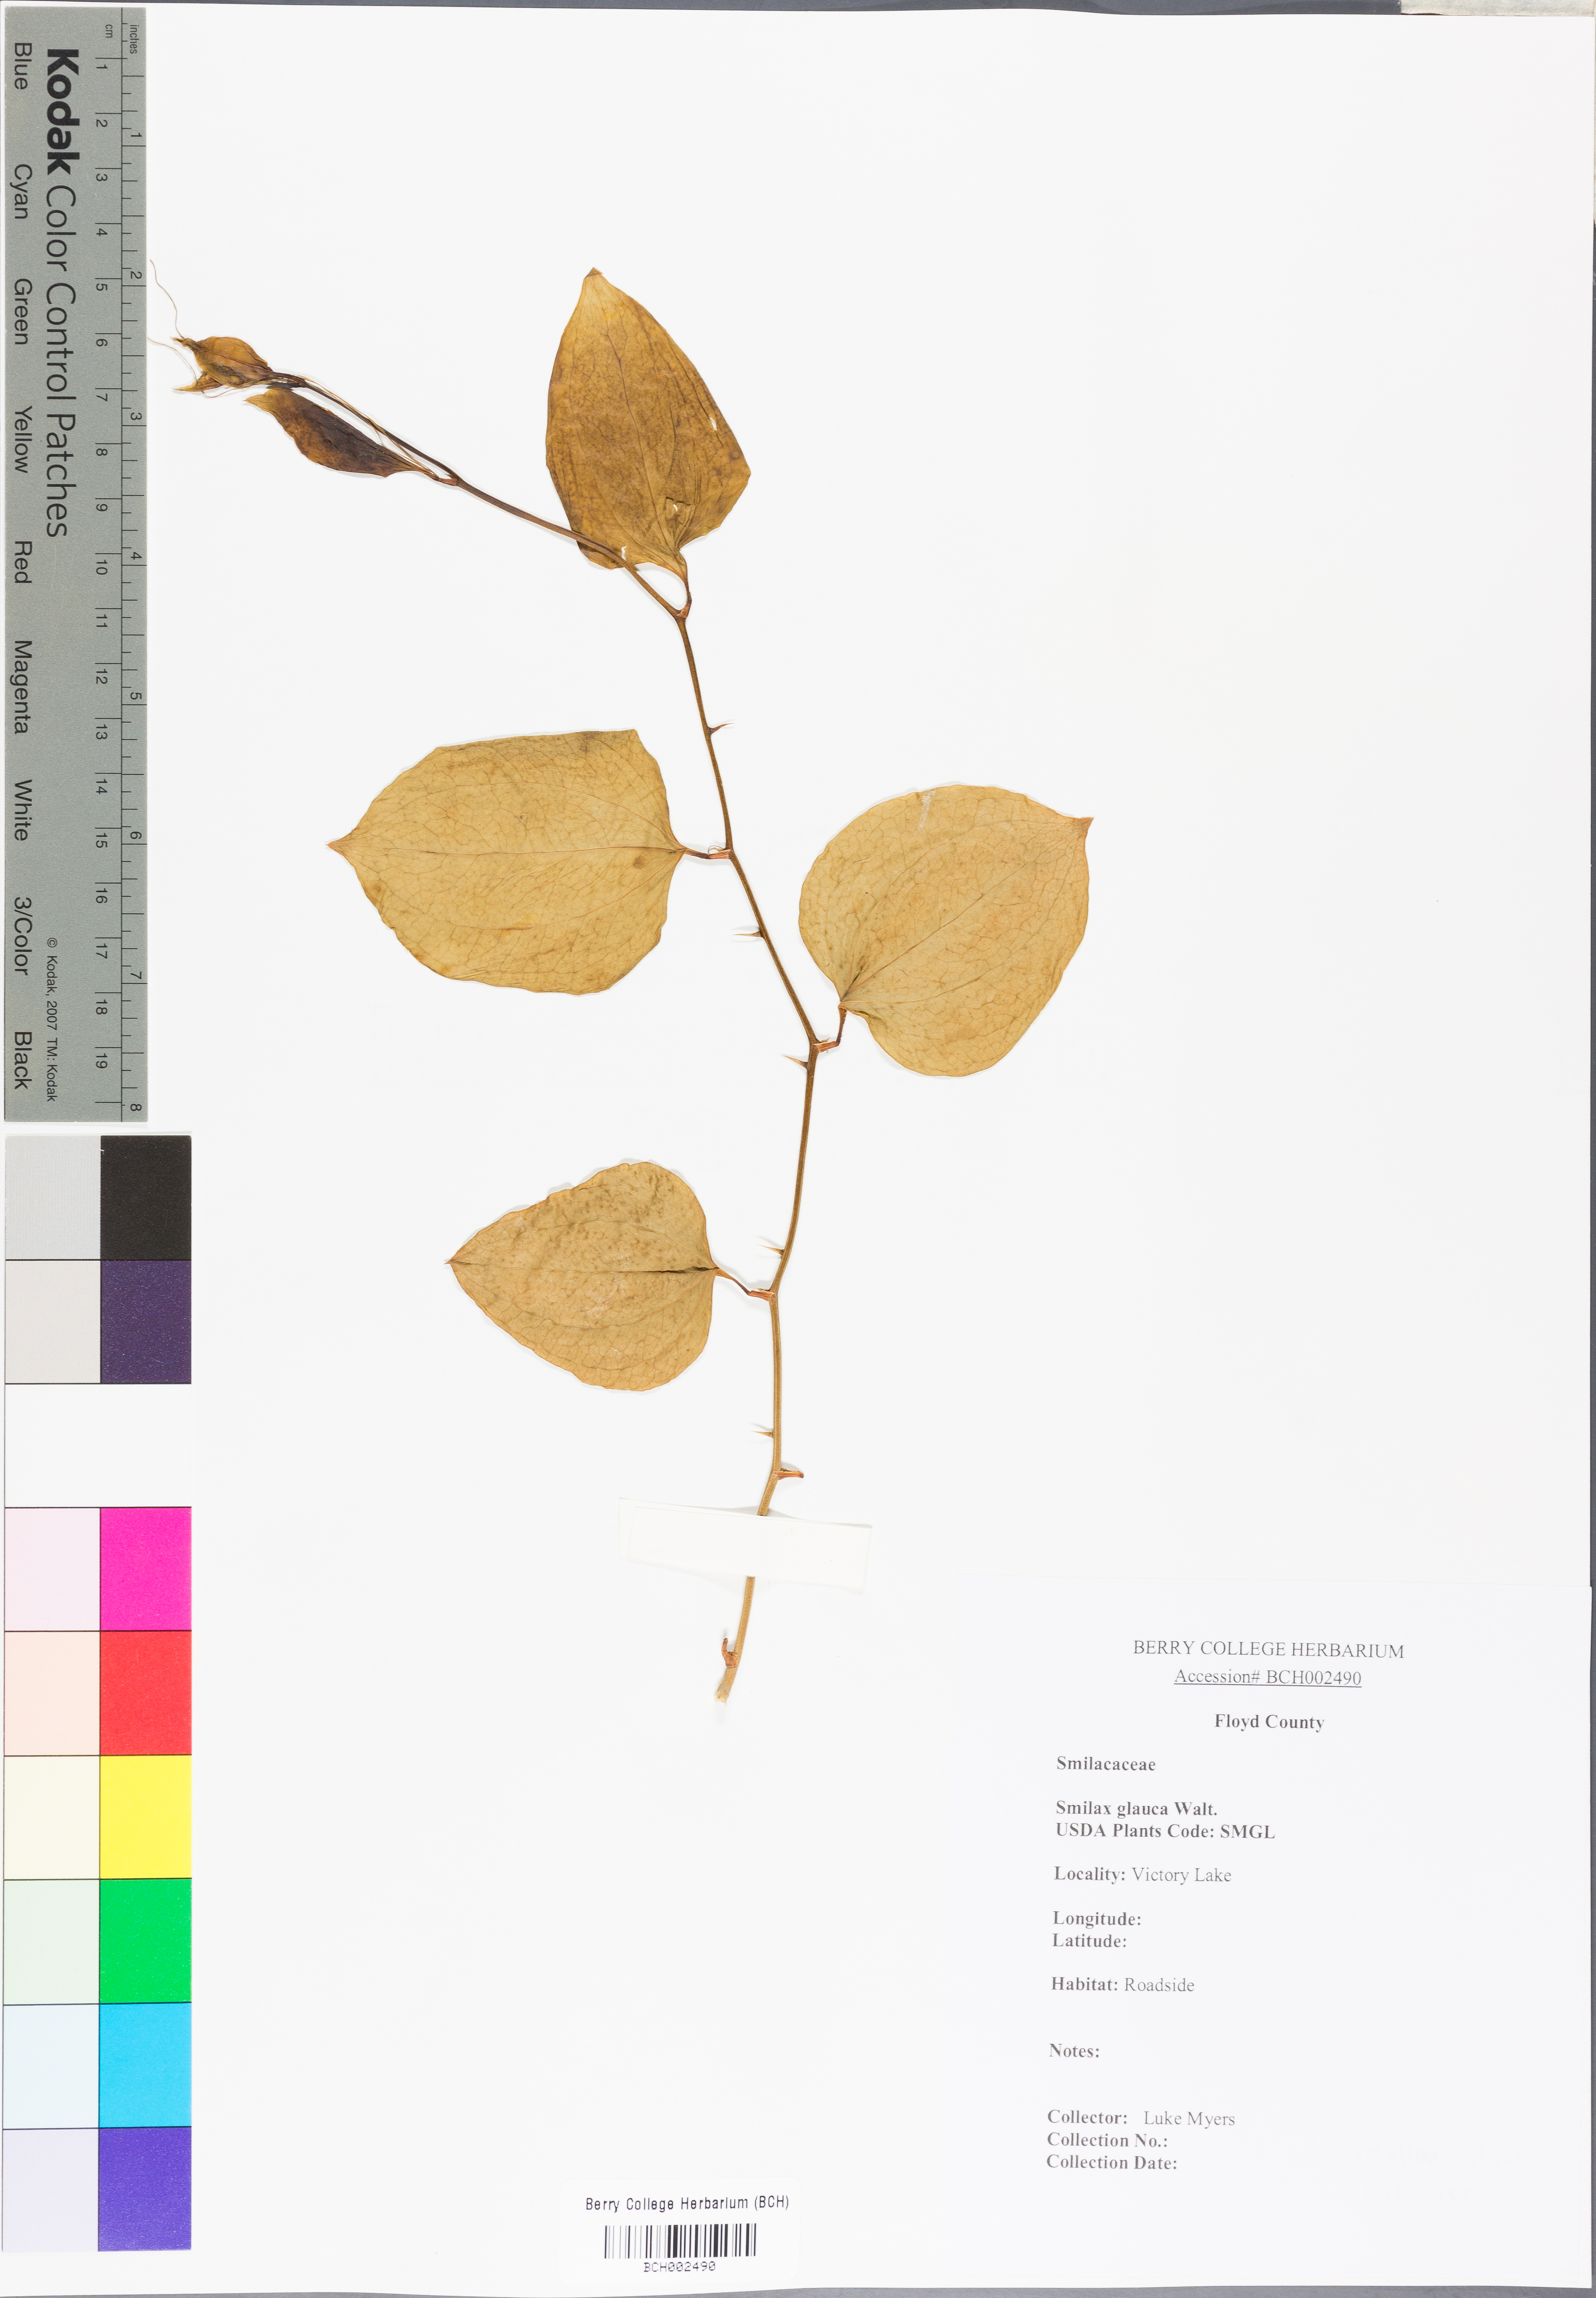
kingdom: Plantae
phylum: Tracheophyta
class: Liliopsida
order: Liliales
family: Smilacaceae
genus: Smilax
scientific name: Smilax glauca
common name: Cat greenbrier
